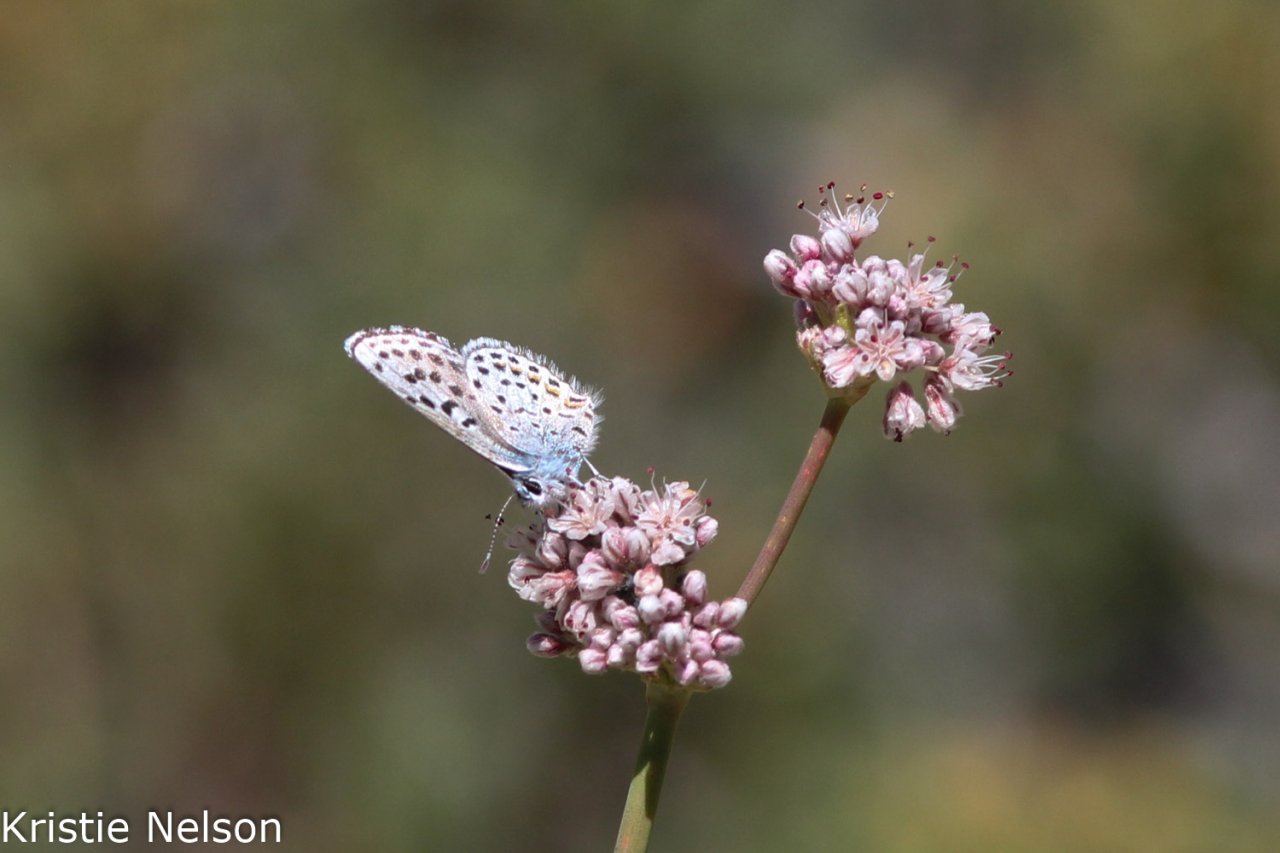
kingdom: Animalia
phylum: Arthropoda
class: Insecta
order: Lepidoptera
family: Lycaenidae
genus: Euphilotes
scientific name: Euphilotes enoptes
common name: Dotted Blue
